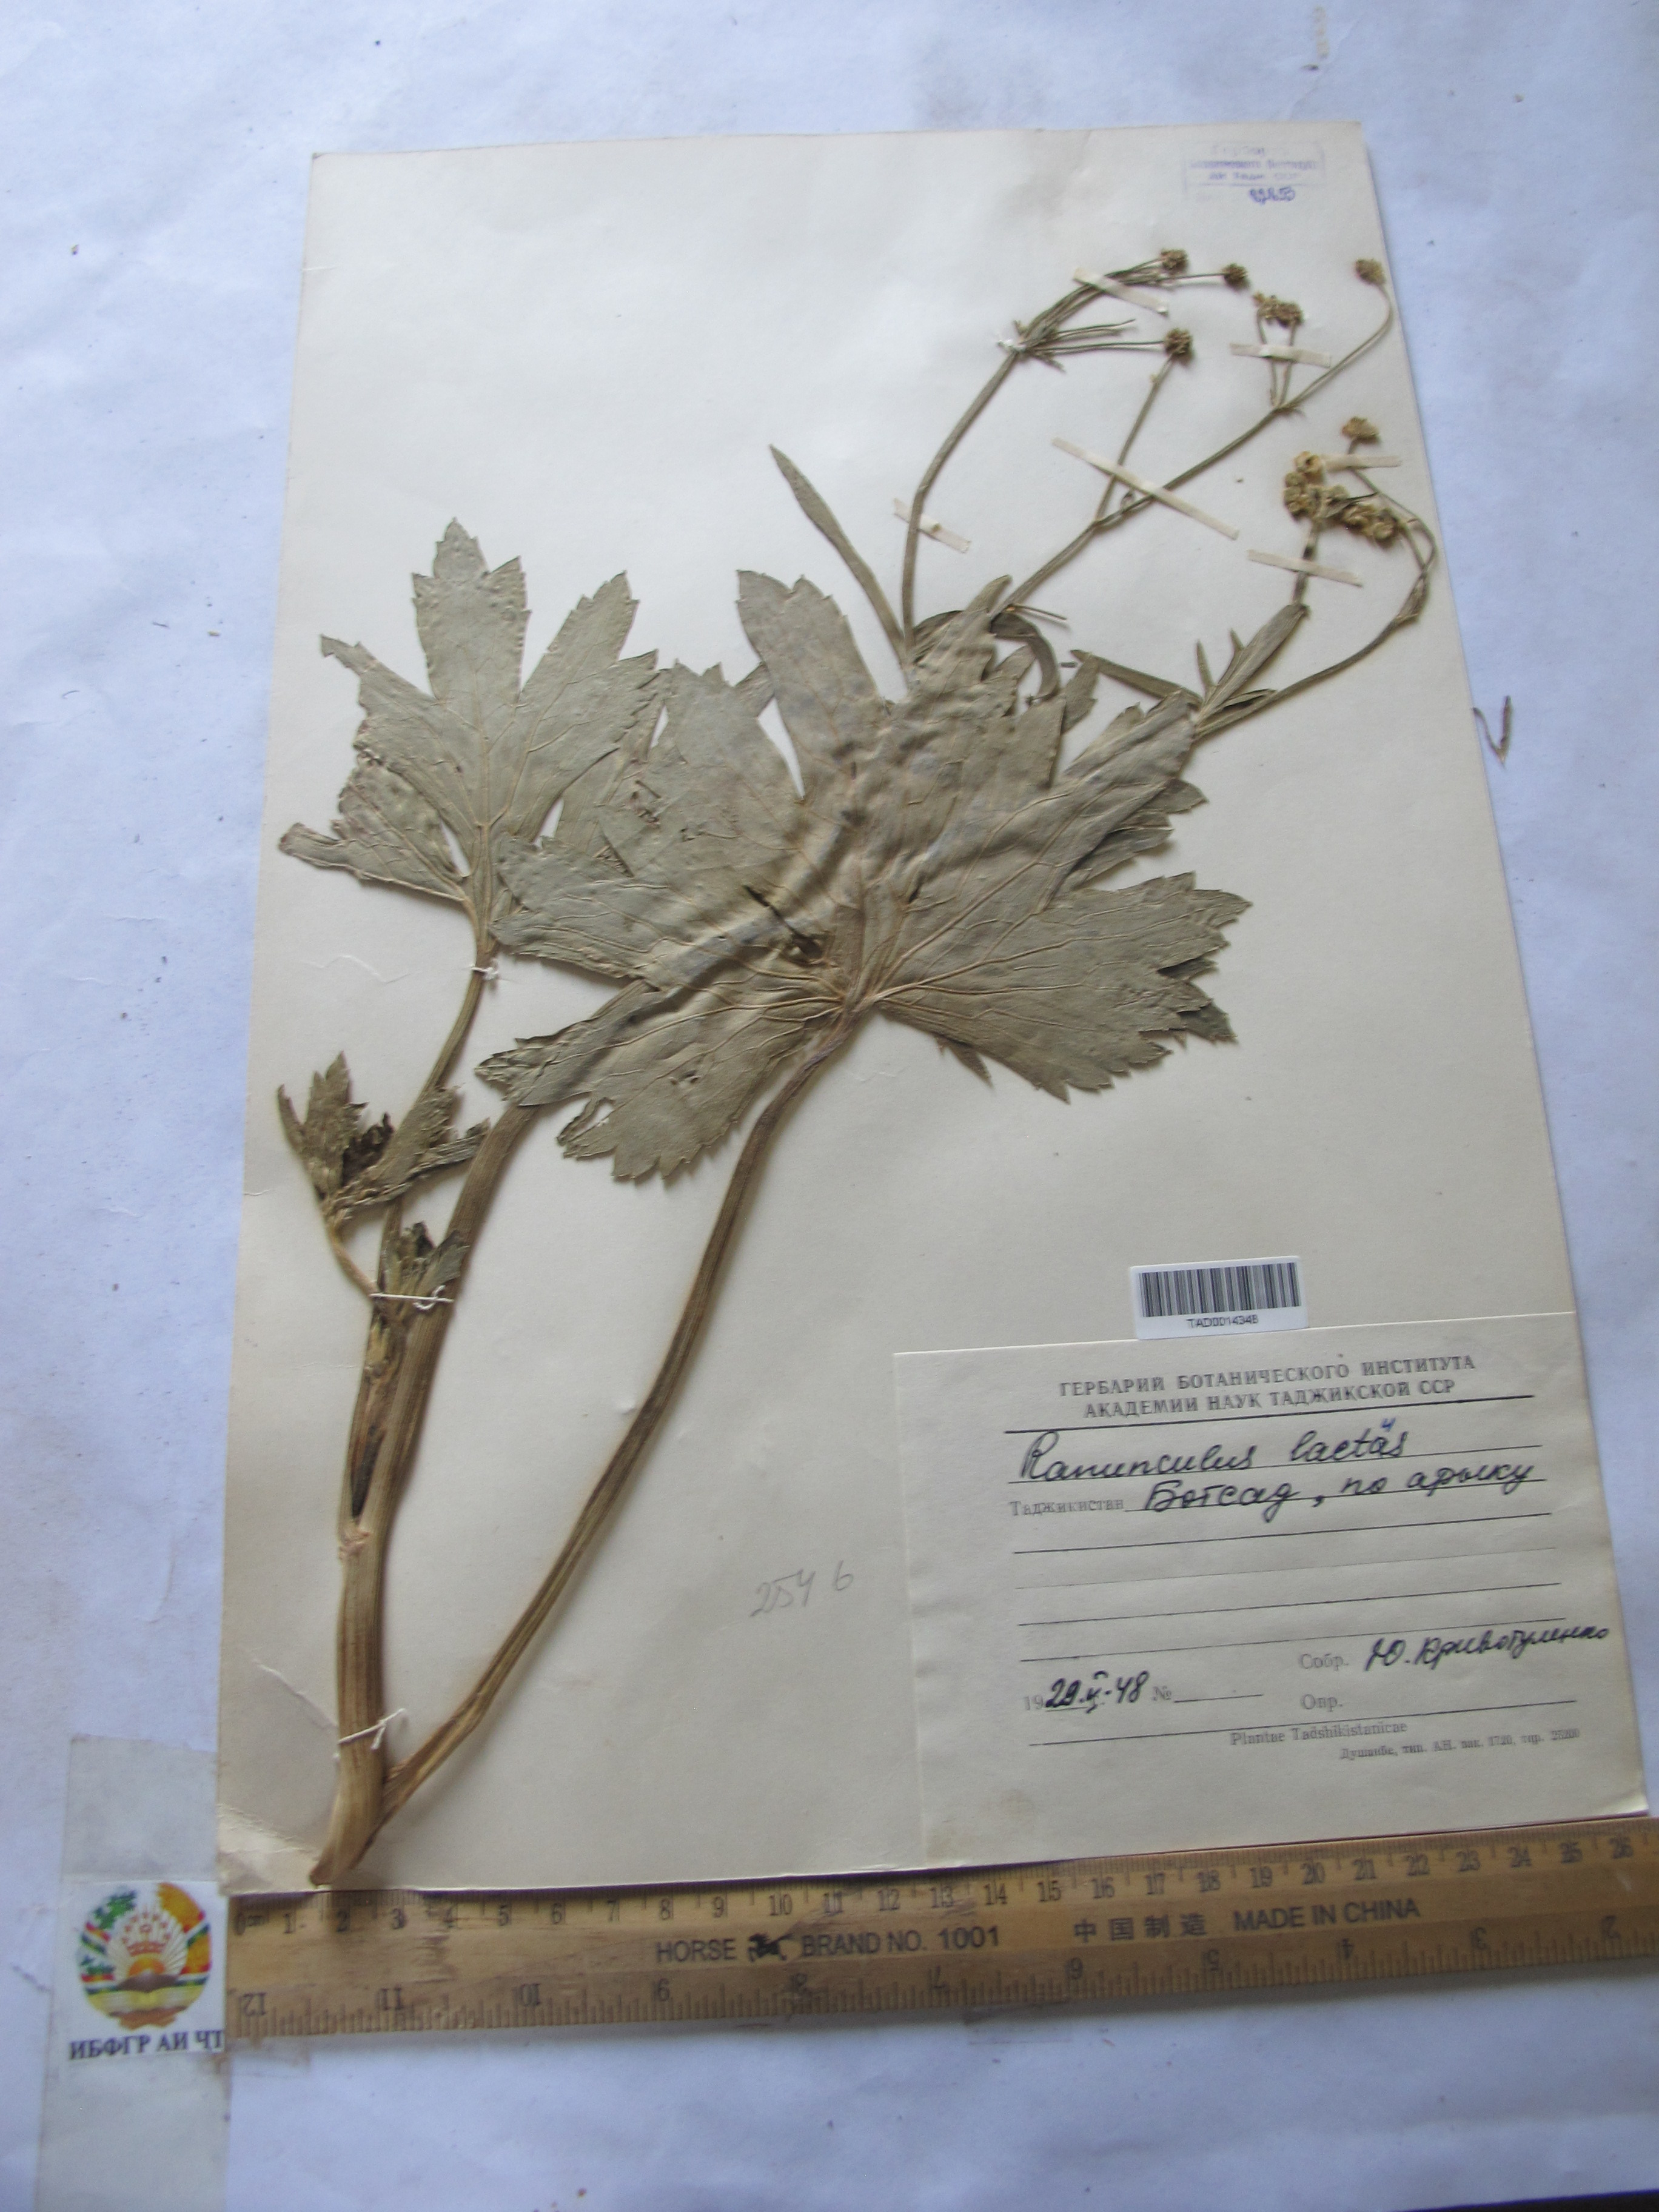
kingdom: Plantae
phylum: Tracheophyta
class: Magnoliopsida
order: Ranunculales
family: Ranunculaceae
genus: Ranunculus
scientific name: Ranunculus distans
